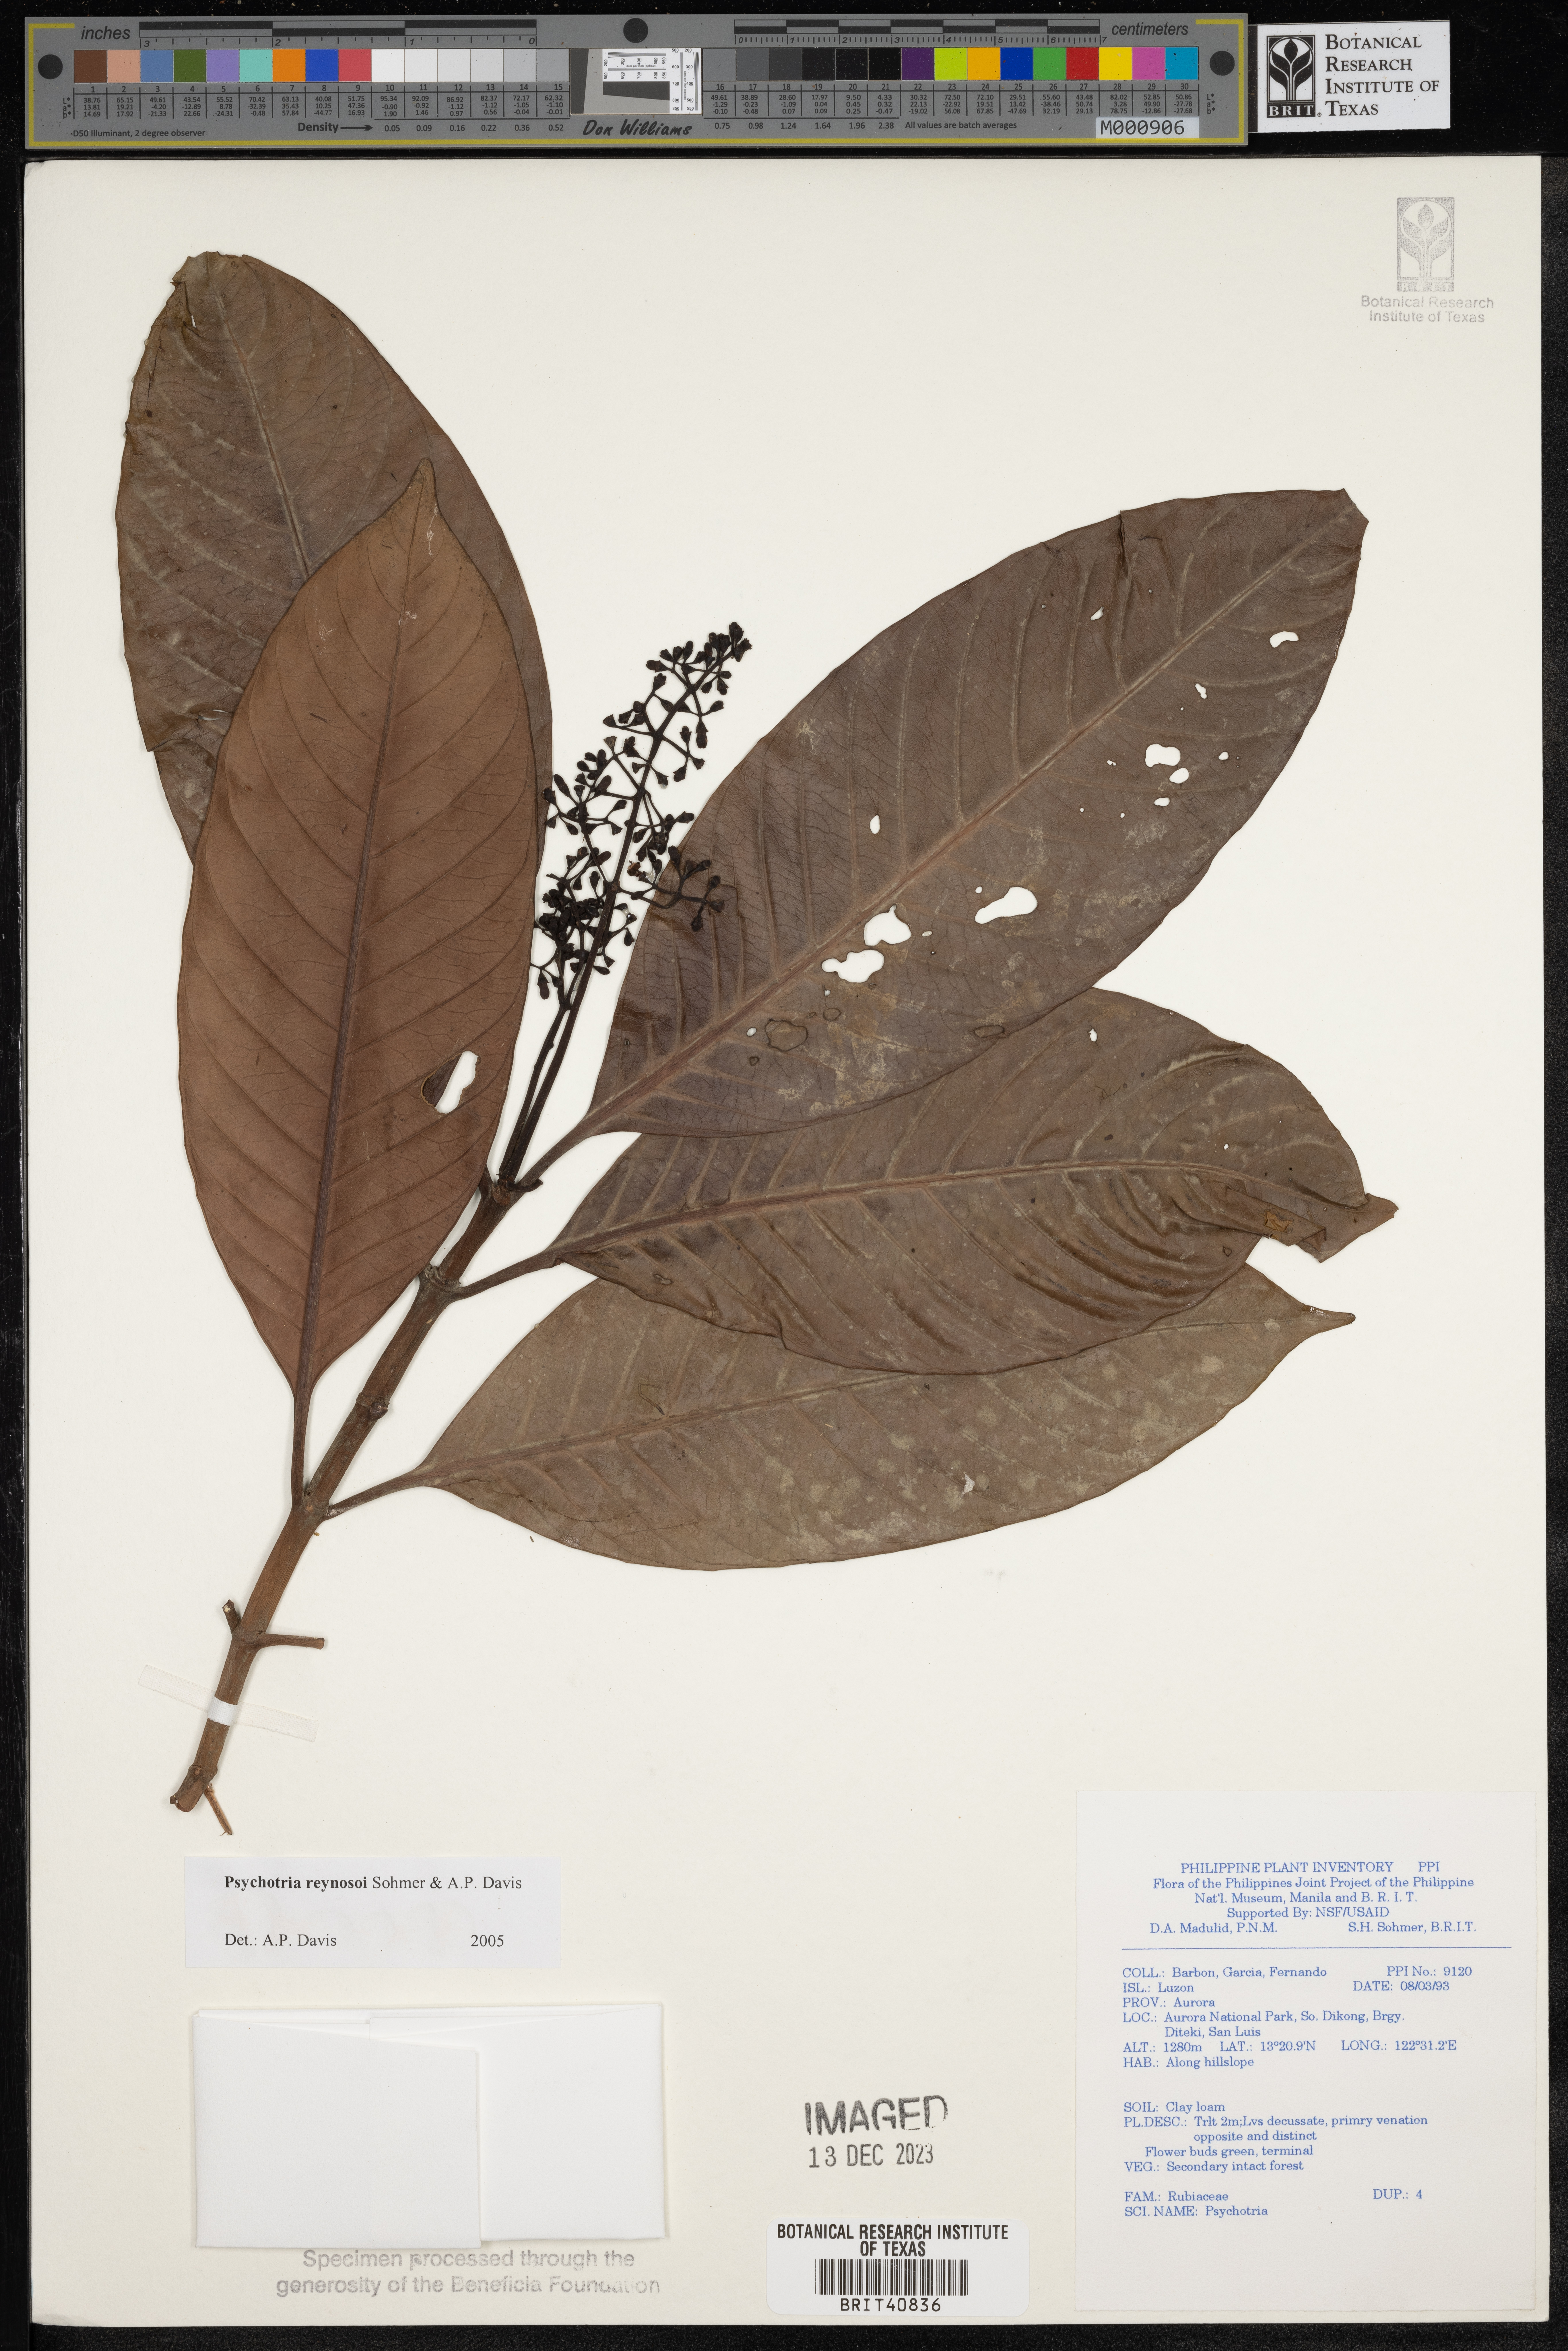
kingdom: Plantae
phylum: Tracheophyta
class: Magnoliopsida
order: Gentianales
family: Rubiaceae
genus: Psychotria
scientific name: Psychotria reynosoi
